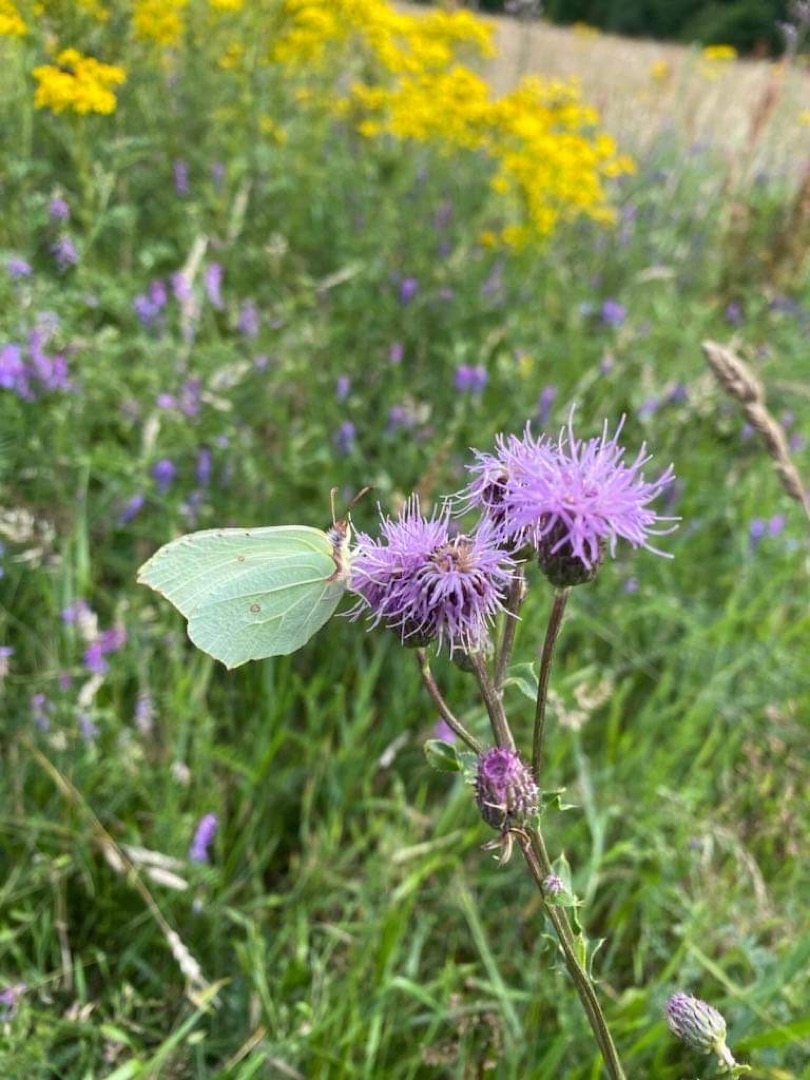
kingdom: Animalia
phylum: Arthropoda
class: Insecta
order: Lepidoptera
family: Pieridae
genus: Gonepteryx
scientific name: Gonepteryx rhamni
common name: Citronsommerfugl
